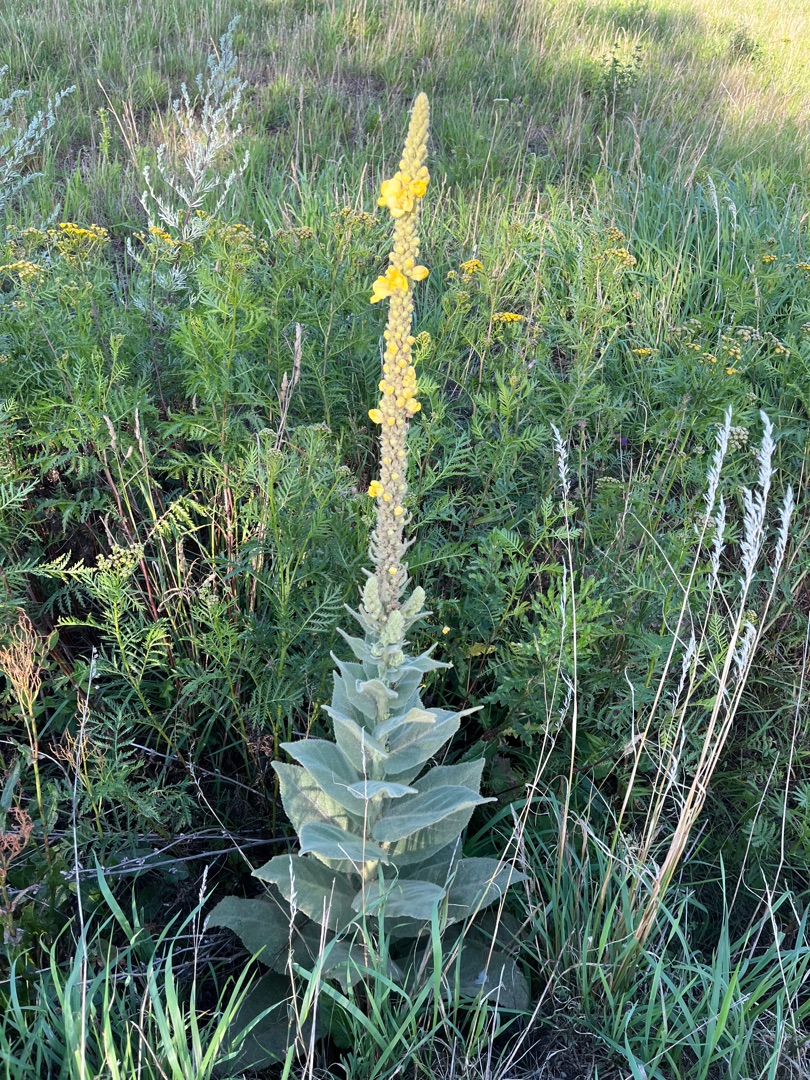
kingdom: Plantae
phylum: Tracheophyta
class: Magnoliopsida
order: Lamiales
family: Scrophulariaceae
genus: Verbascum
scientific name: Verbascum densiflorum
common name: Uldbladet kongelys
